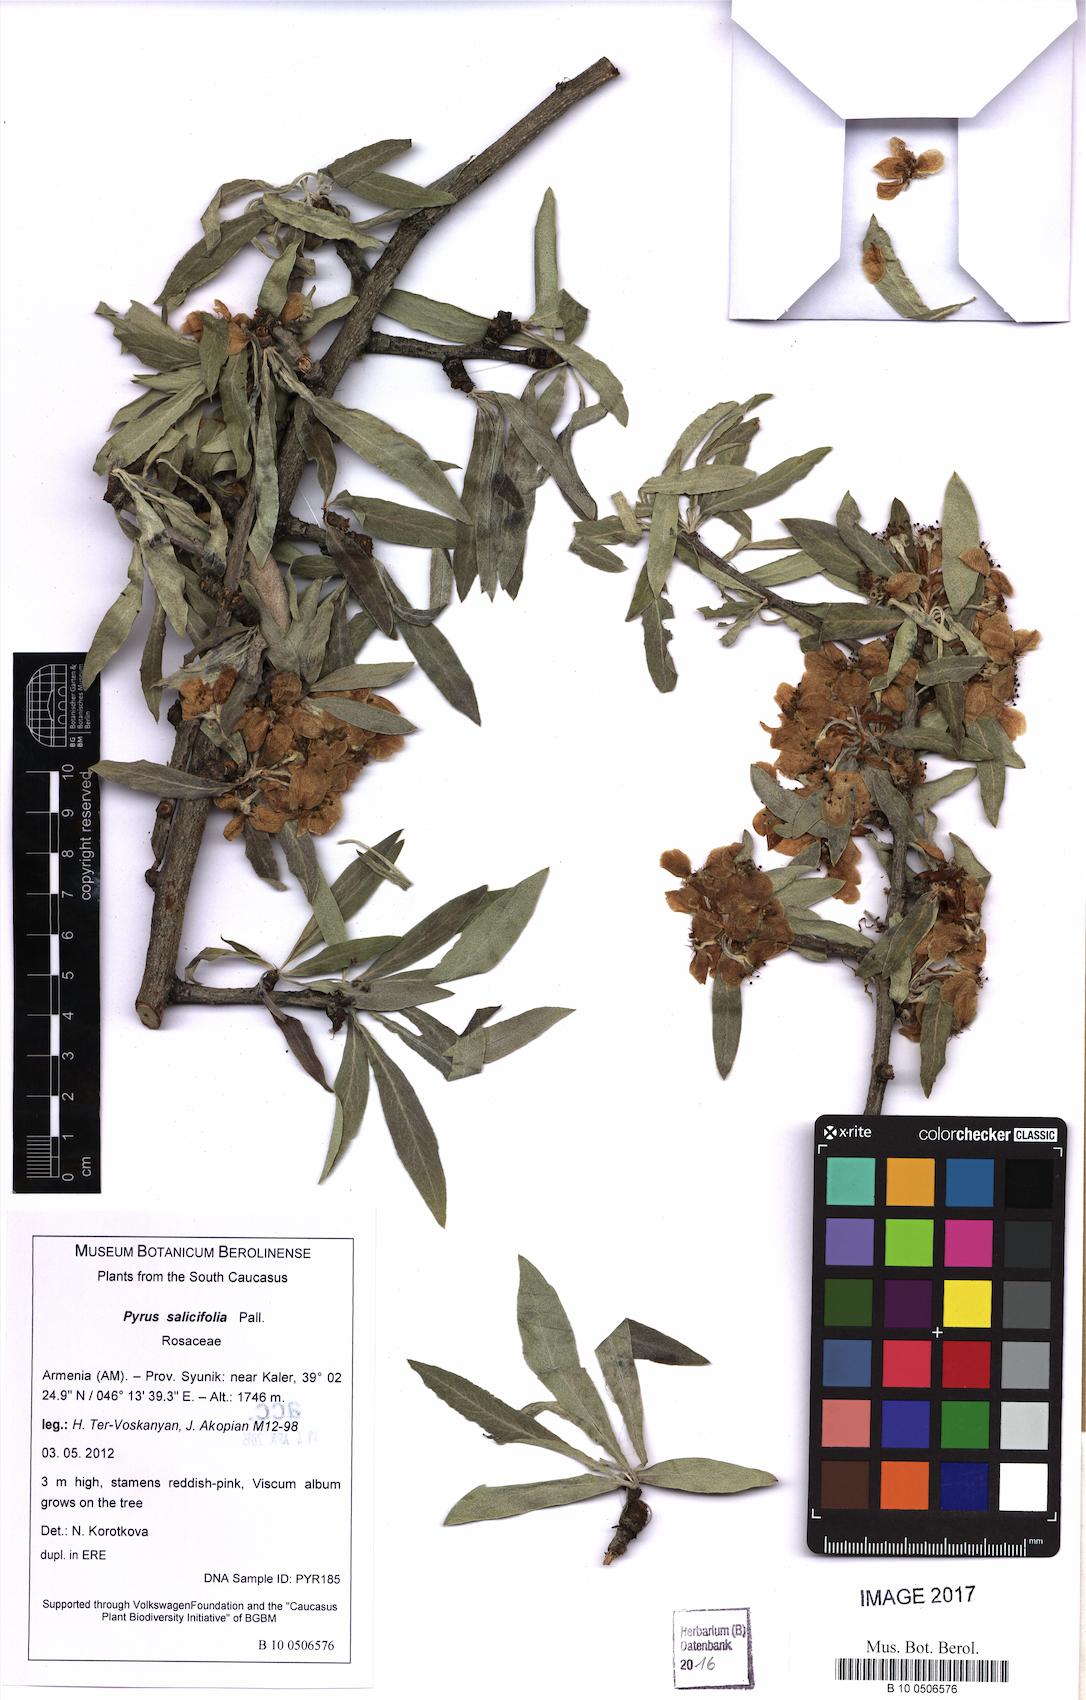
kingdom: Plantae
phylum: Tracheophyta
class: Magnoliopsida
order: Rosales
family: Rosaceae
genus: Pyrus
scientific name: Pyrus salicifolia
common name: Willow-leaved pear
